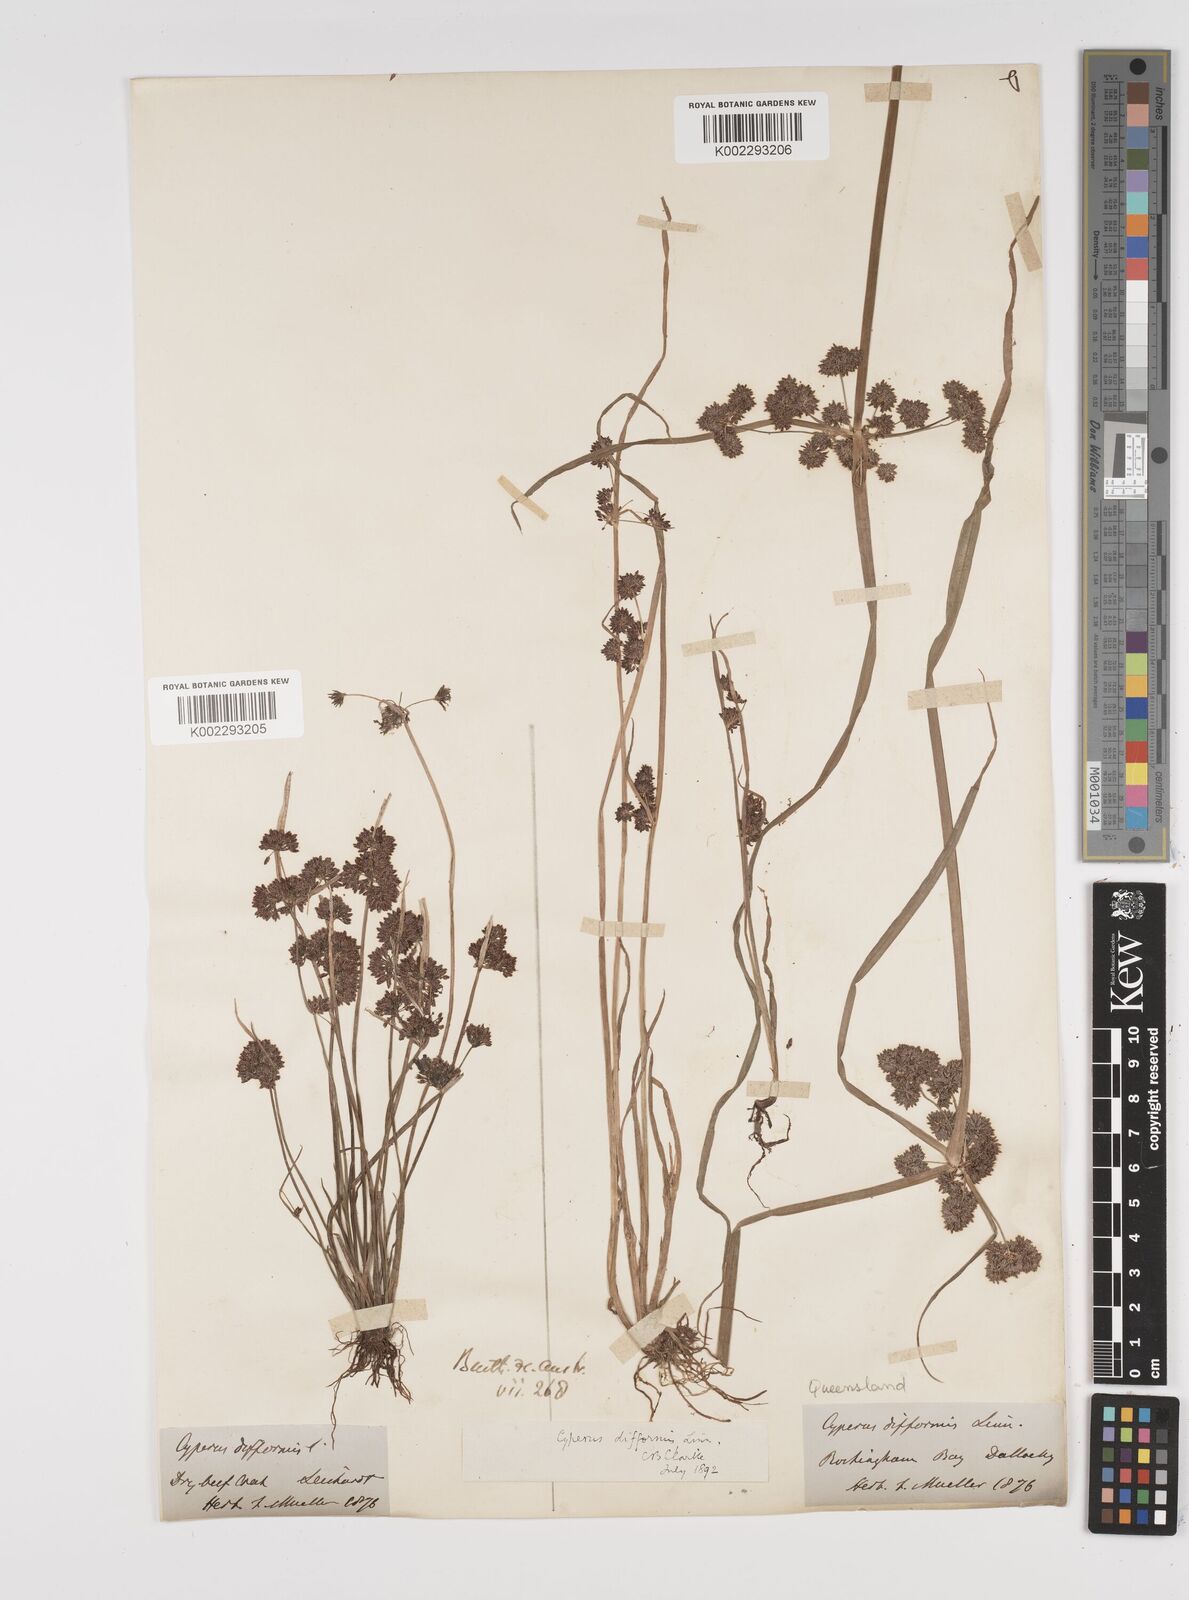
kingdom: Plantae
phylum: Tracheophyta
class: Liliopsida
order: Poales
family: Cyperaceae
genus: Cyperus
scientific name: Cyperus difformis
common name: Variable flatsedge
